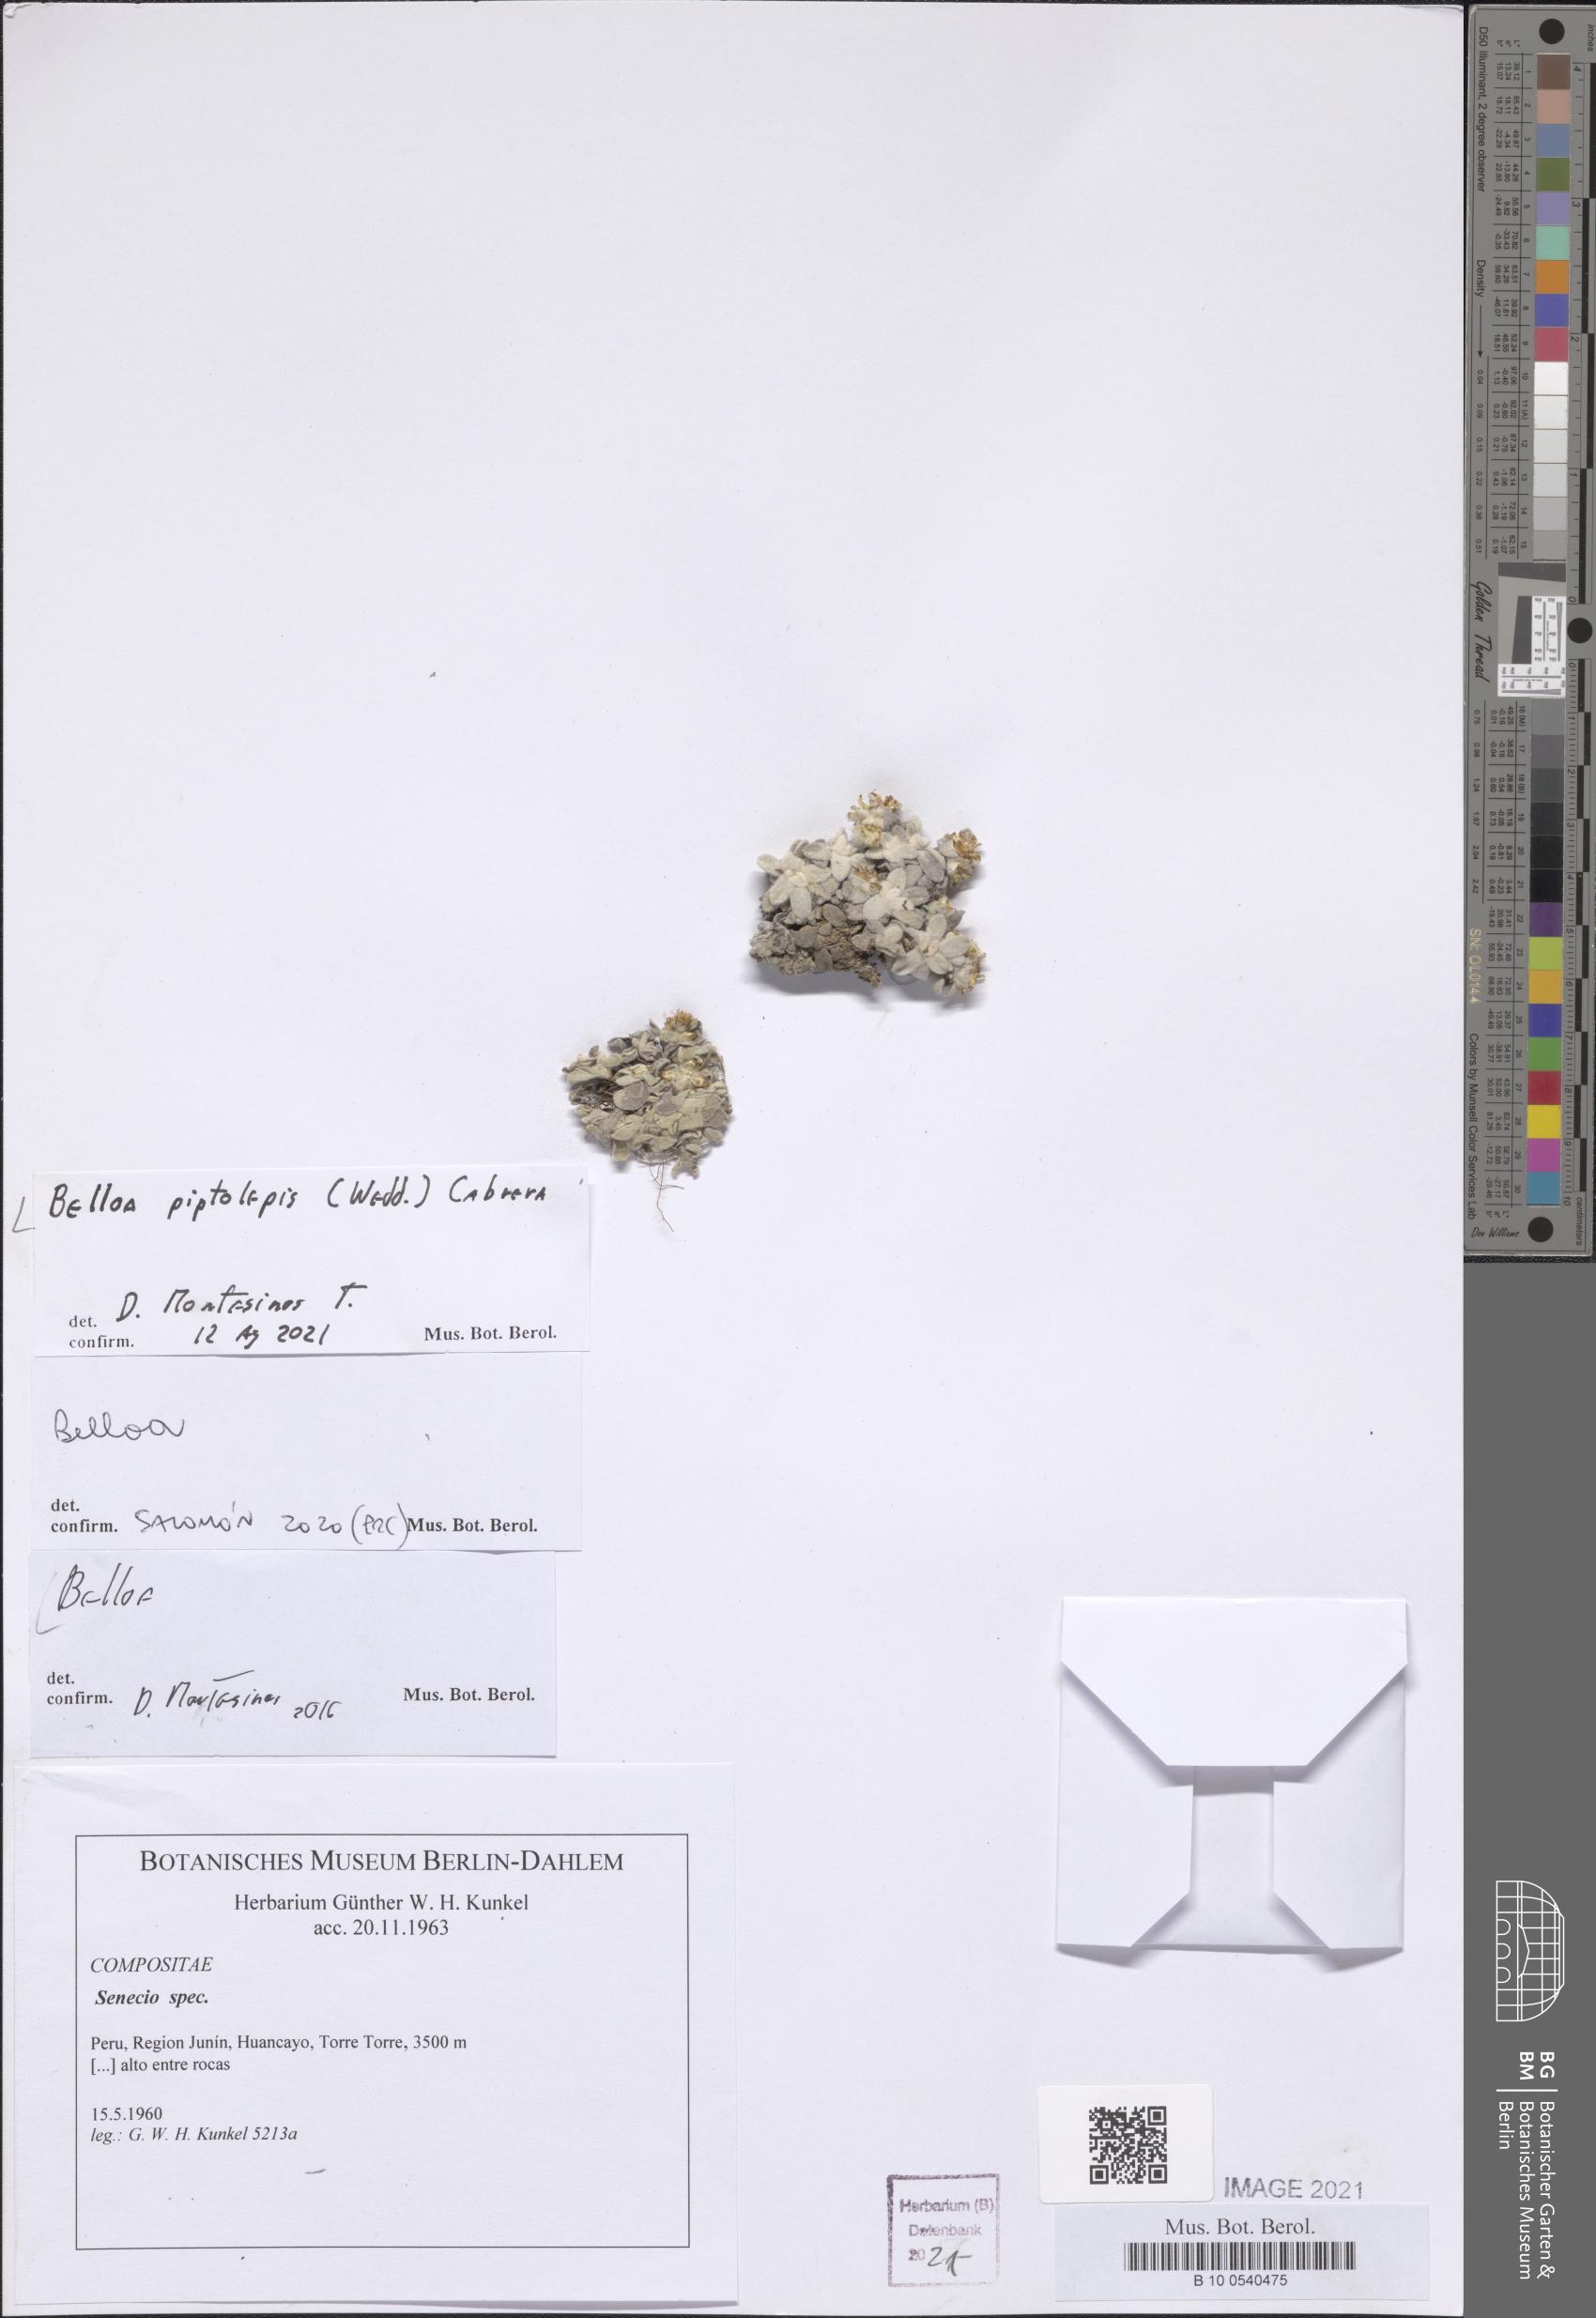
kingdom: Plantae
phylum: Tracheophyta
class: Magnoliopsida
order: Asterales
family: Asteraceae
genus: Mniodes
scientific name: Mniodes piptolepis
